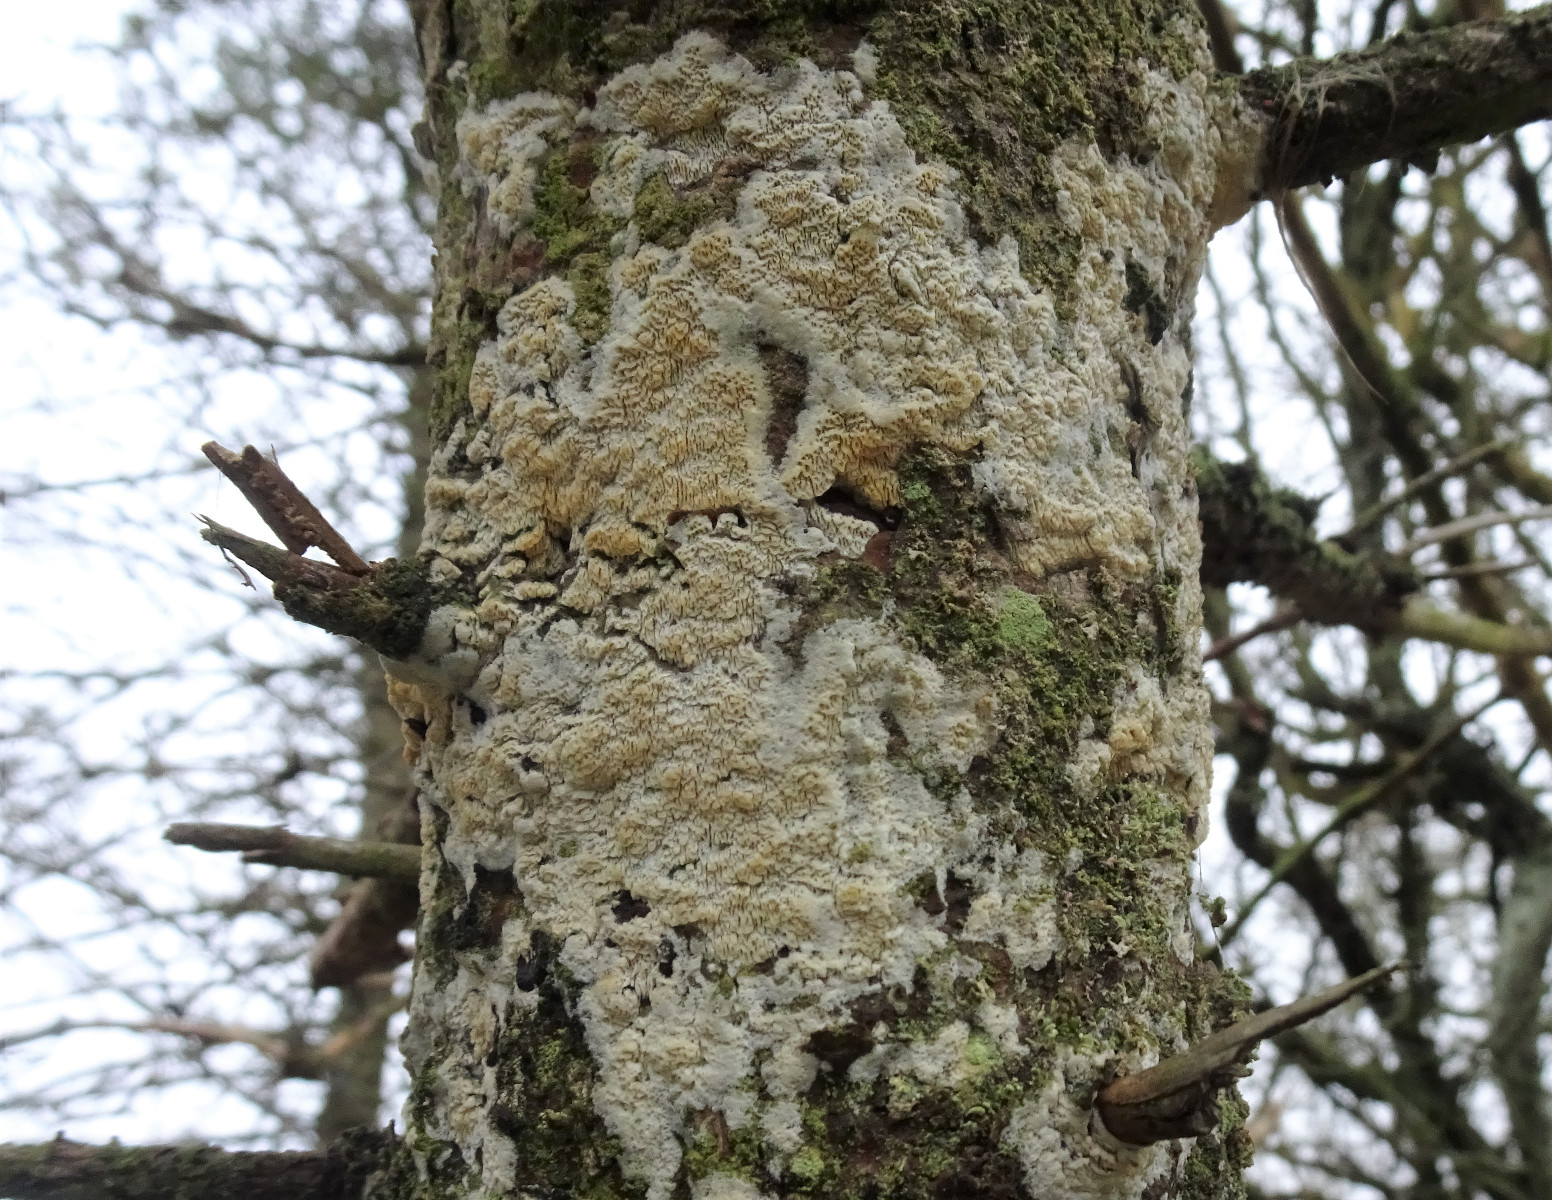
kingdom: Fungi
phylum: Basidiomycota
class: Agaricomycetes
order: Hymenochaetales
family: Schizoporaceae
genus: Xylodon
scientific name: Xylodon
